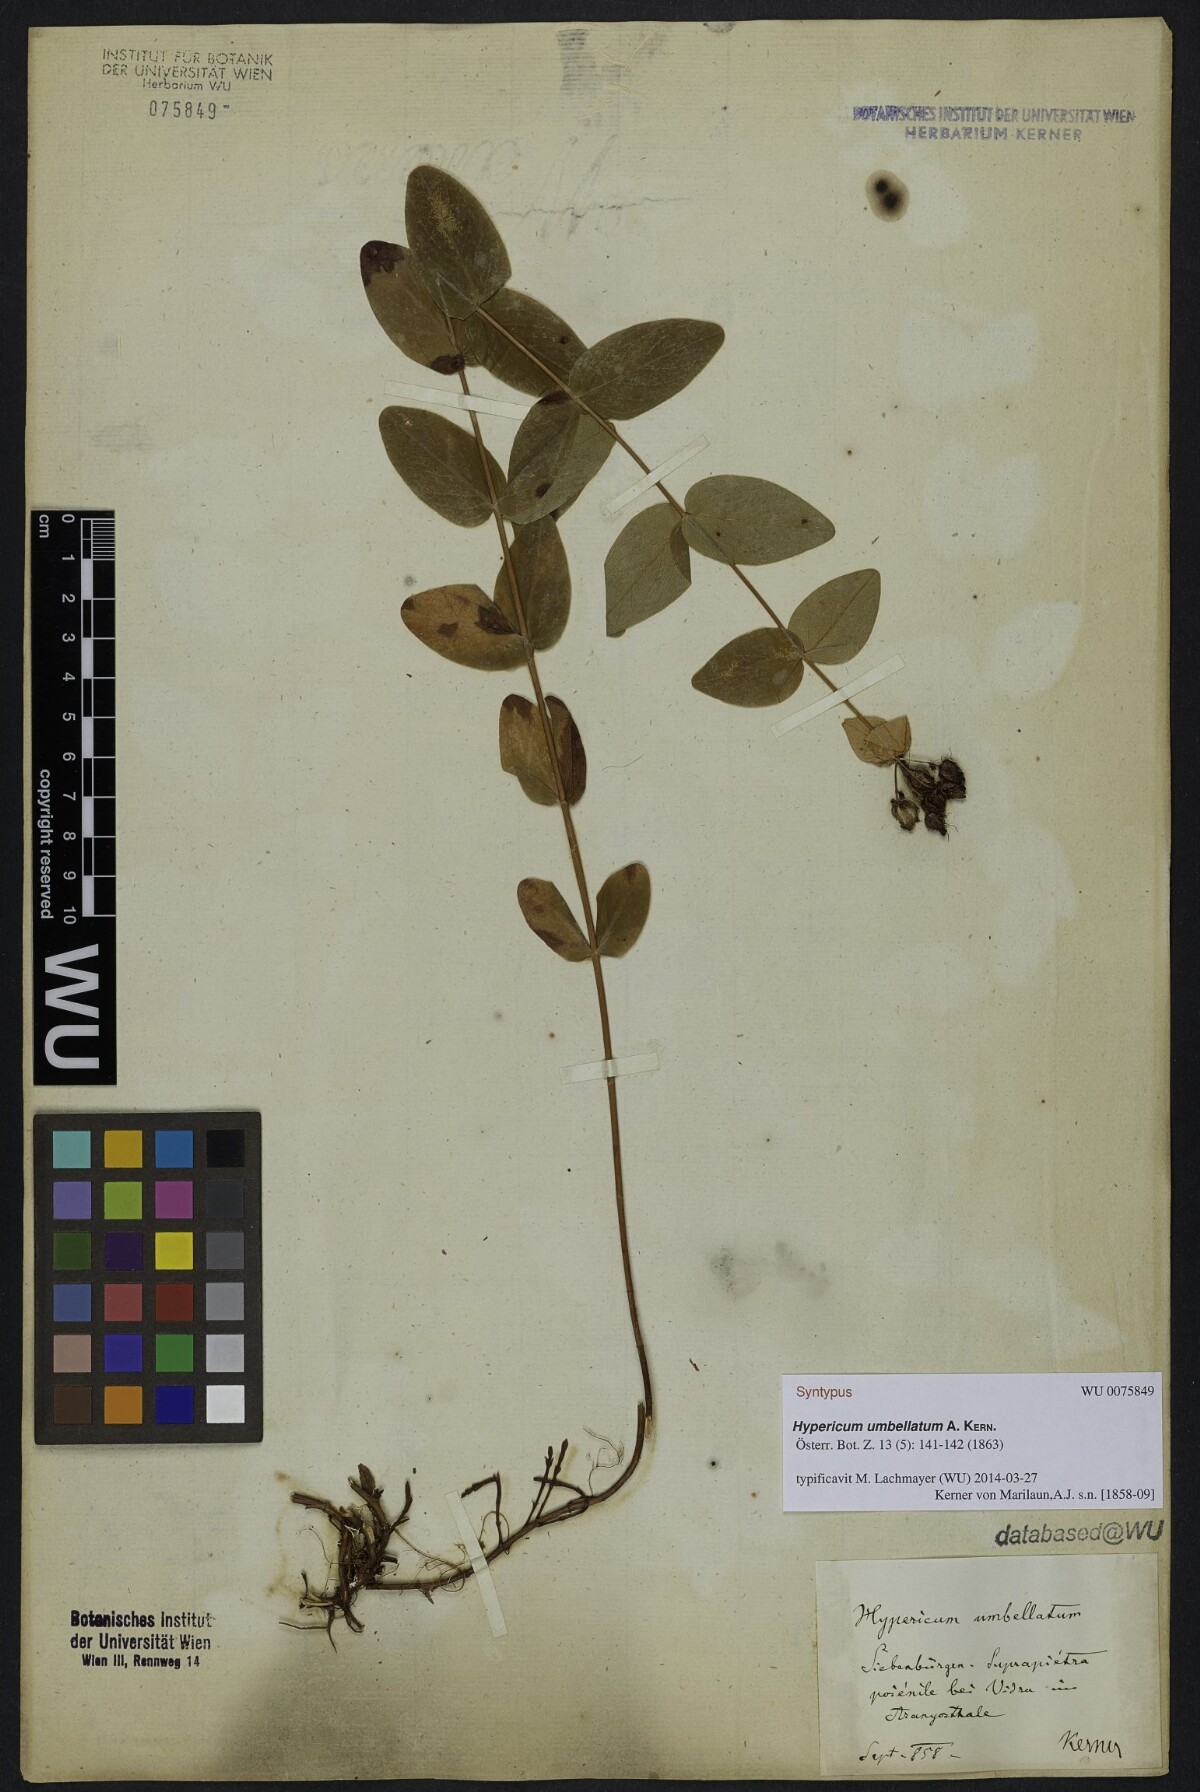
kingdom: Plantae
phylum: Tracheophyta
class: Magnoliopsida
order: Malpighiales
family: Hypericaceae
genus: Hypericum
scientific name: Hypericum umbellatum
